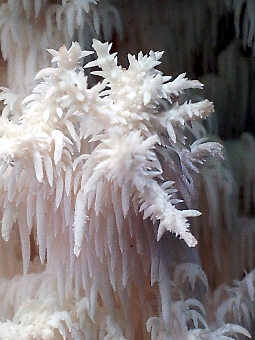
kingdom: Fungi
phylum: Basidiomycota
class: Agaricomycetes
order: Russulales
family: Hericiaceae
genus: Hericium
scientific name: Hericium coralloides
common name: koralpigsvamp
